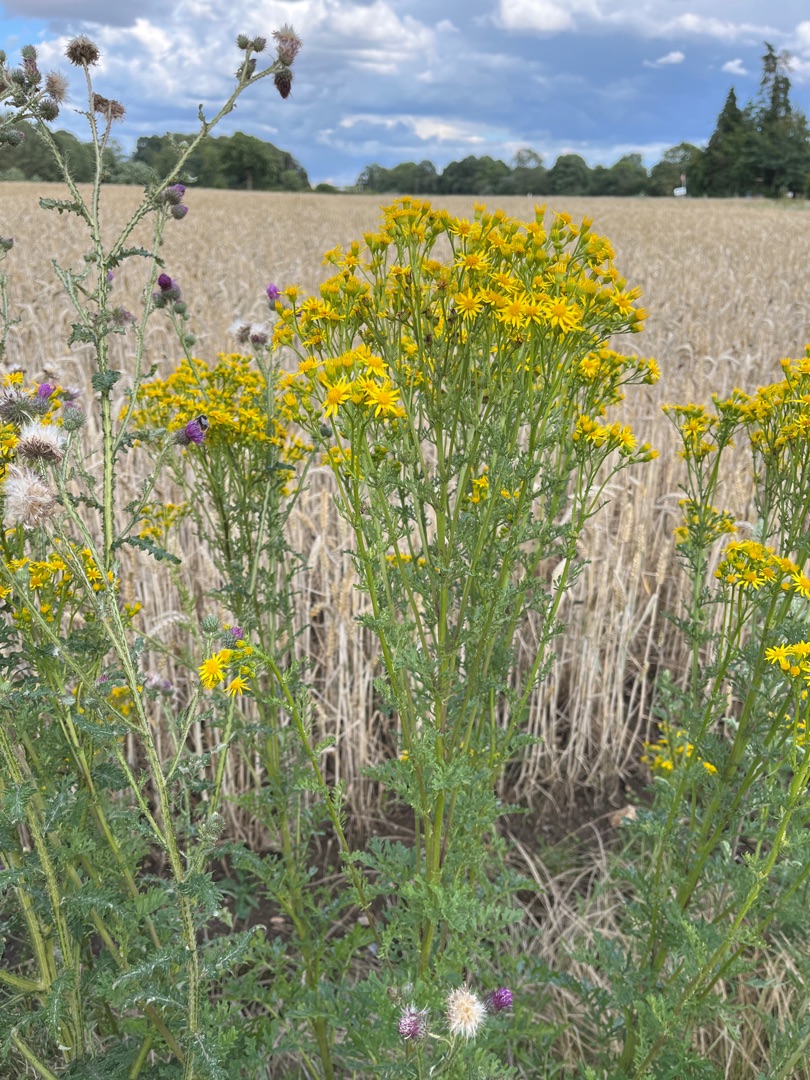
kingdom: Plantae
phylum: Tracheophyta
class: Magnoliopsida
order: Asterales
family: Asteraceae
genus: Jacobaea
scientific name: Jacobaea vulgaris
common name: Eng-brandbæger
